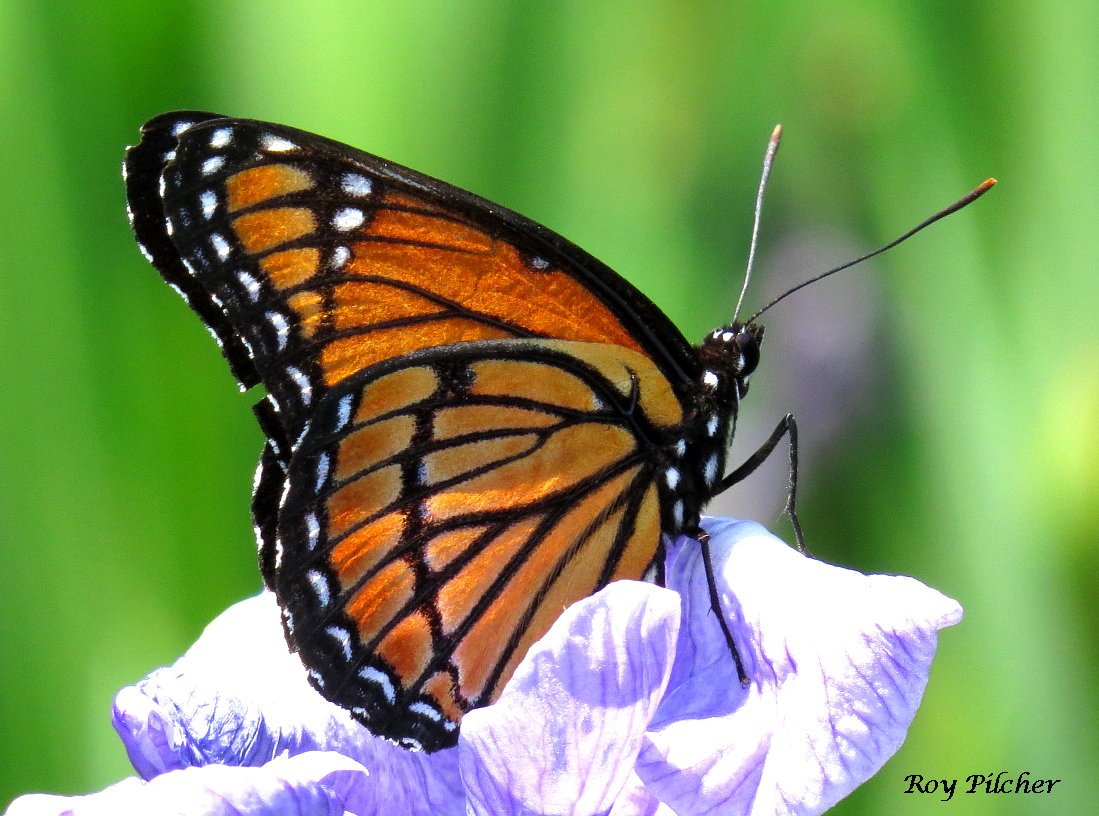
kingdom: Animalia
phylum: Arthropoda
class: Insecta
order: Lepidoptera
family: Nymphalidae
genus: Limenitis
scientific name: Limenitis archippus
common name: Viceroy
